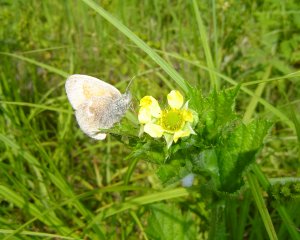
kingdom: Animalia
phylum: Arthropoda
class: Insecta
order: Lepidoptera
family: Nymphalidae
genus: Coenonympha
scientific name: Coenonympha tullia
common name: Large Heath
